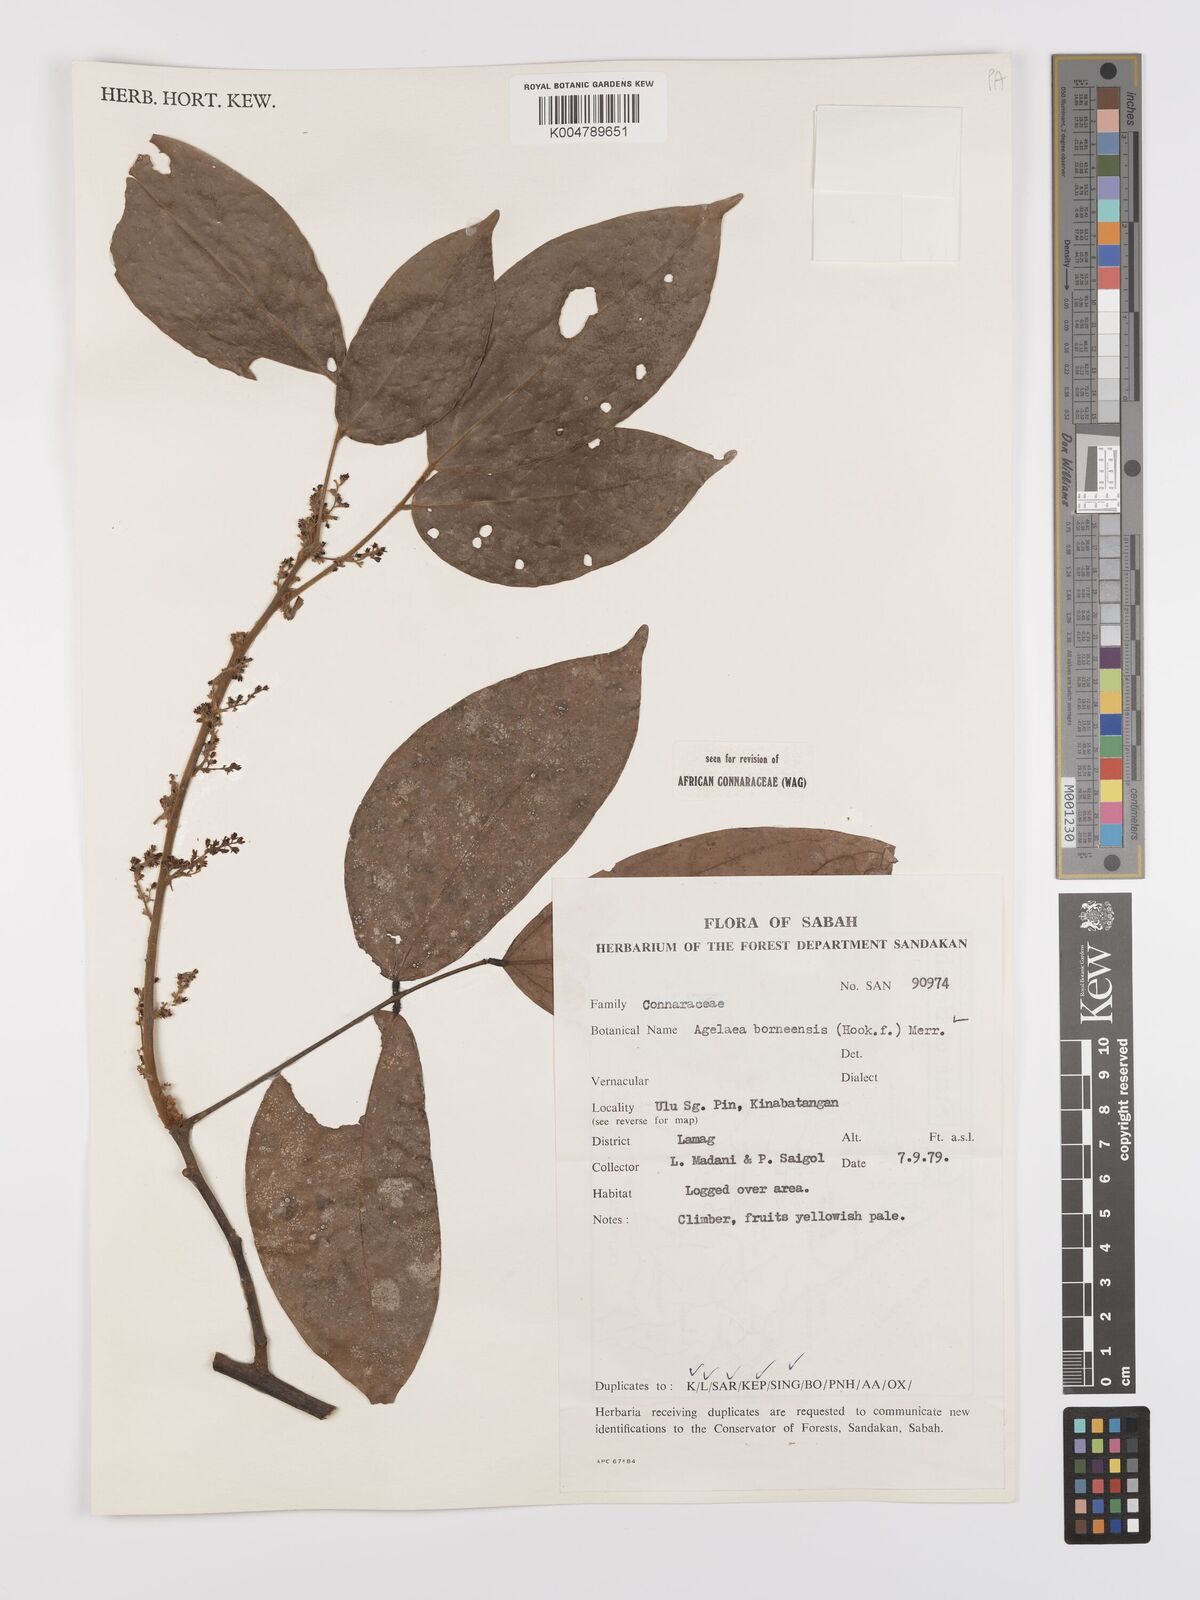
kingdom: Plantae
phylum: Tracheophyta
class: Magnoliopsida
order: Oxalidales
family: Connaraceae
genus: Agelaea
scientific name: Agelaea borneensis
